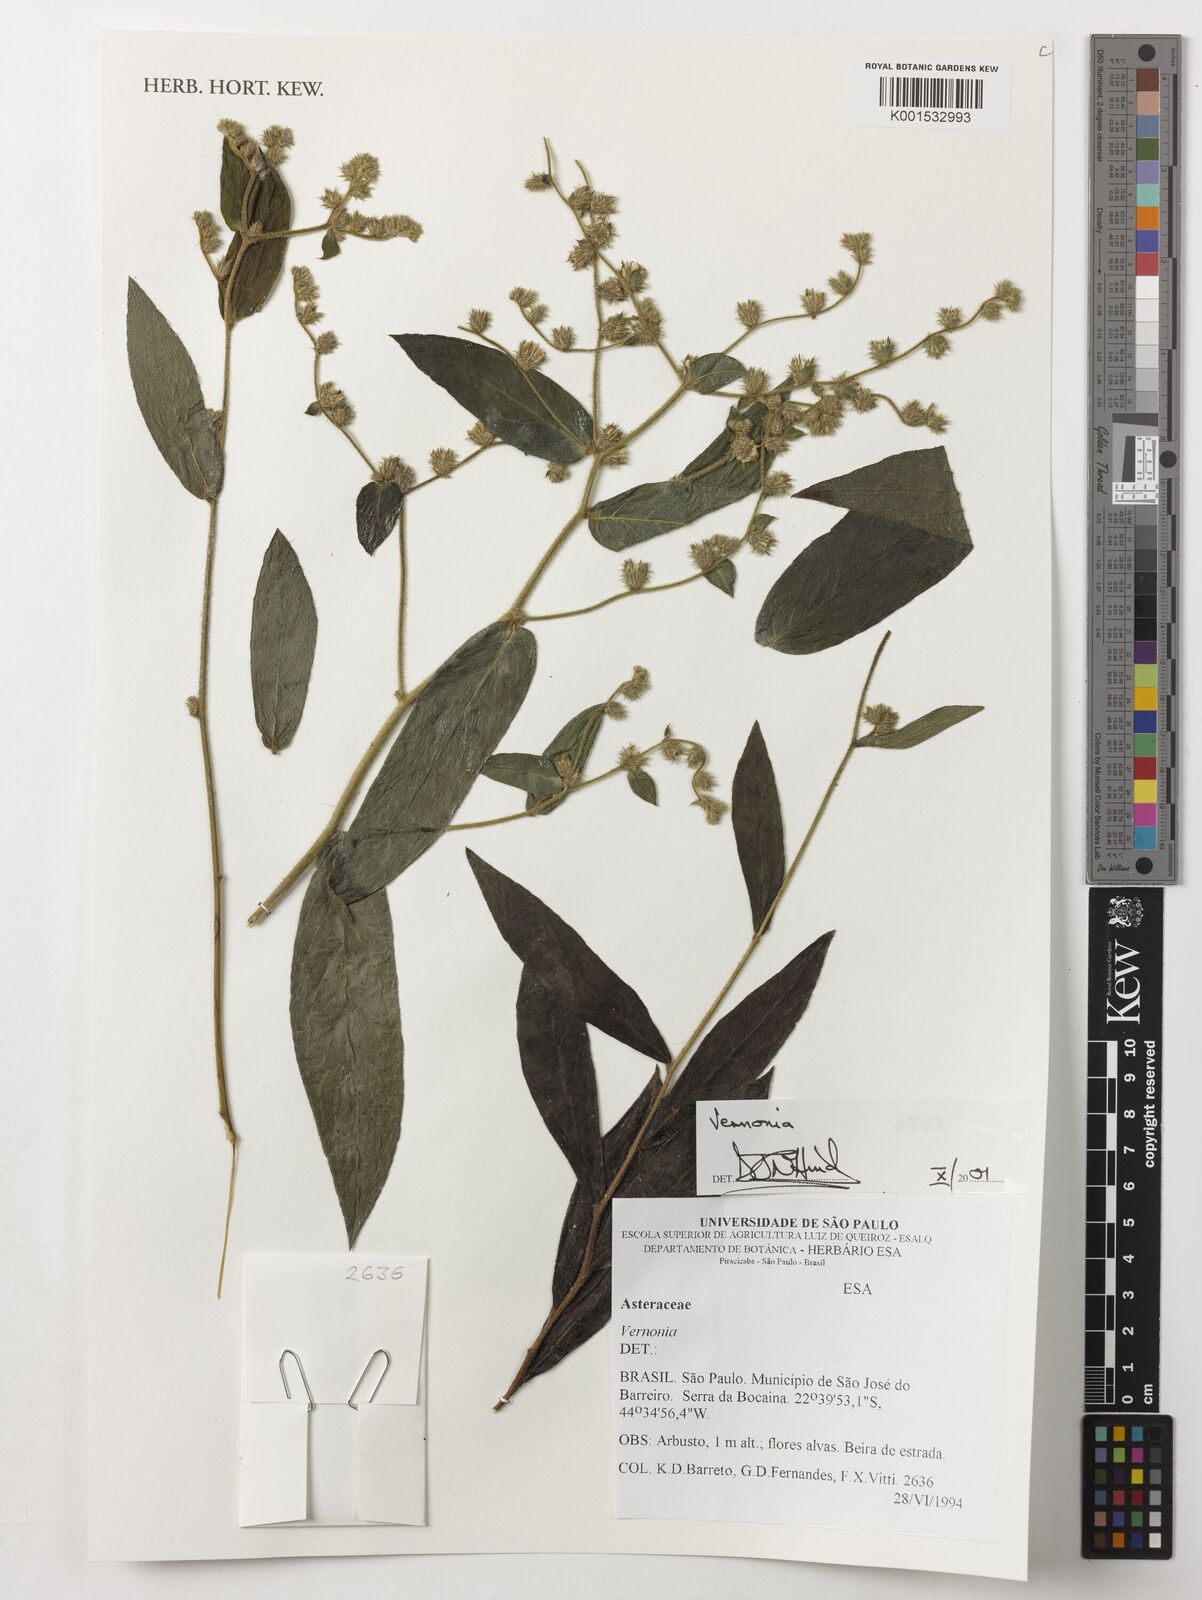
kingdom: Plantae
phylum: Tracheophyta
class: Magnoliopsida
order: Asterales
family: Asteraceae
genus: Vernonia
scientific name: Vernonia
